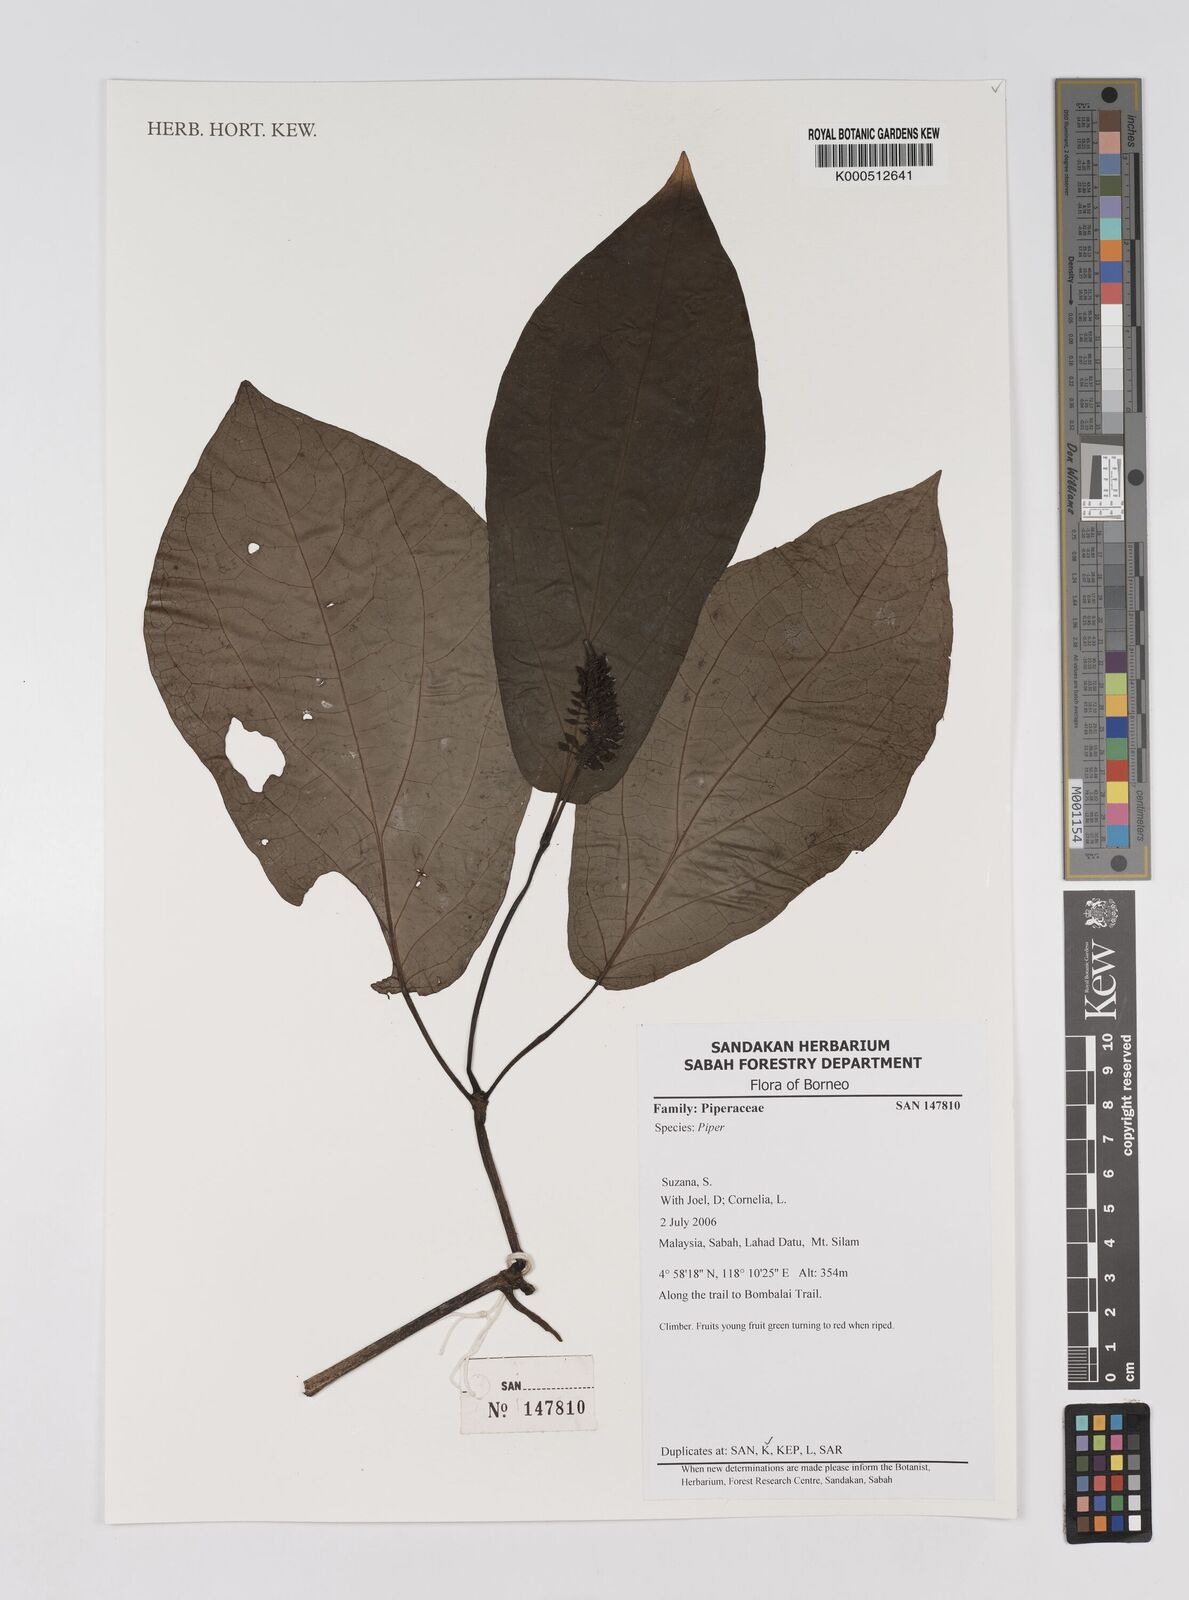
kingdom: Plantae
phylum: Tracheophyta
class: Magnoliopsida
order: Piperales
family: Piperaceae
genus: Piper
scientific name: Piper
